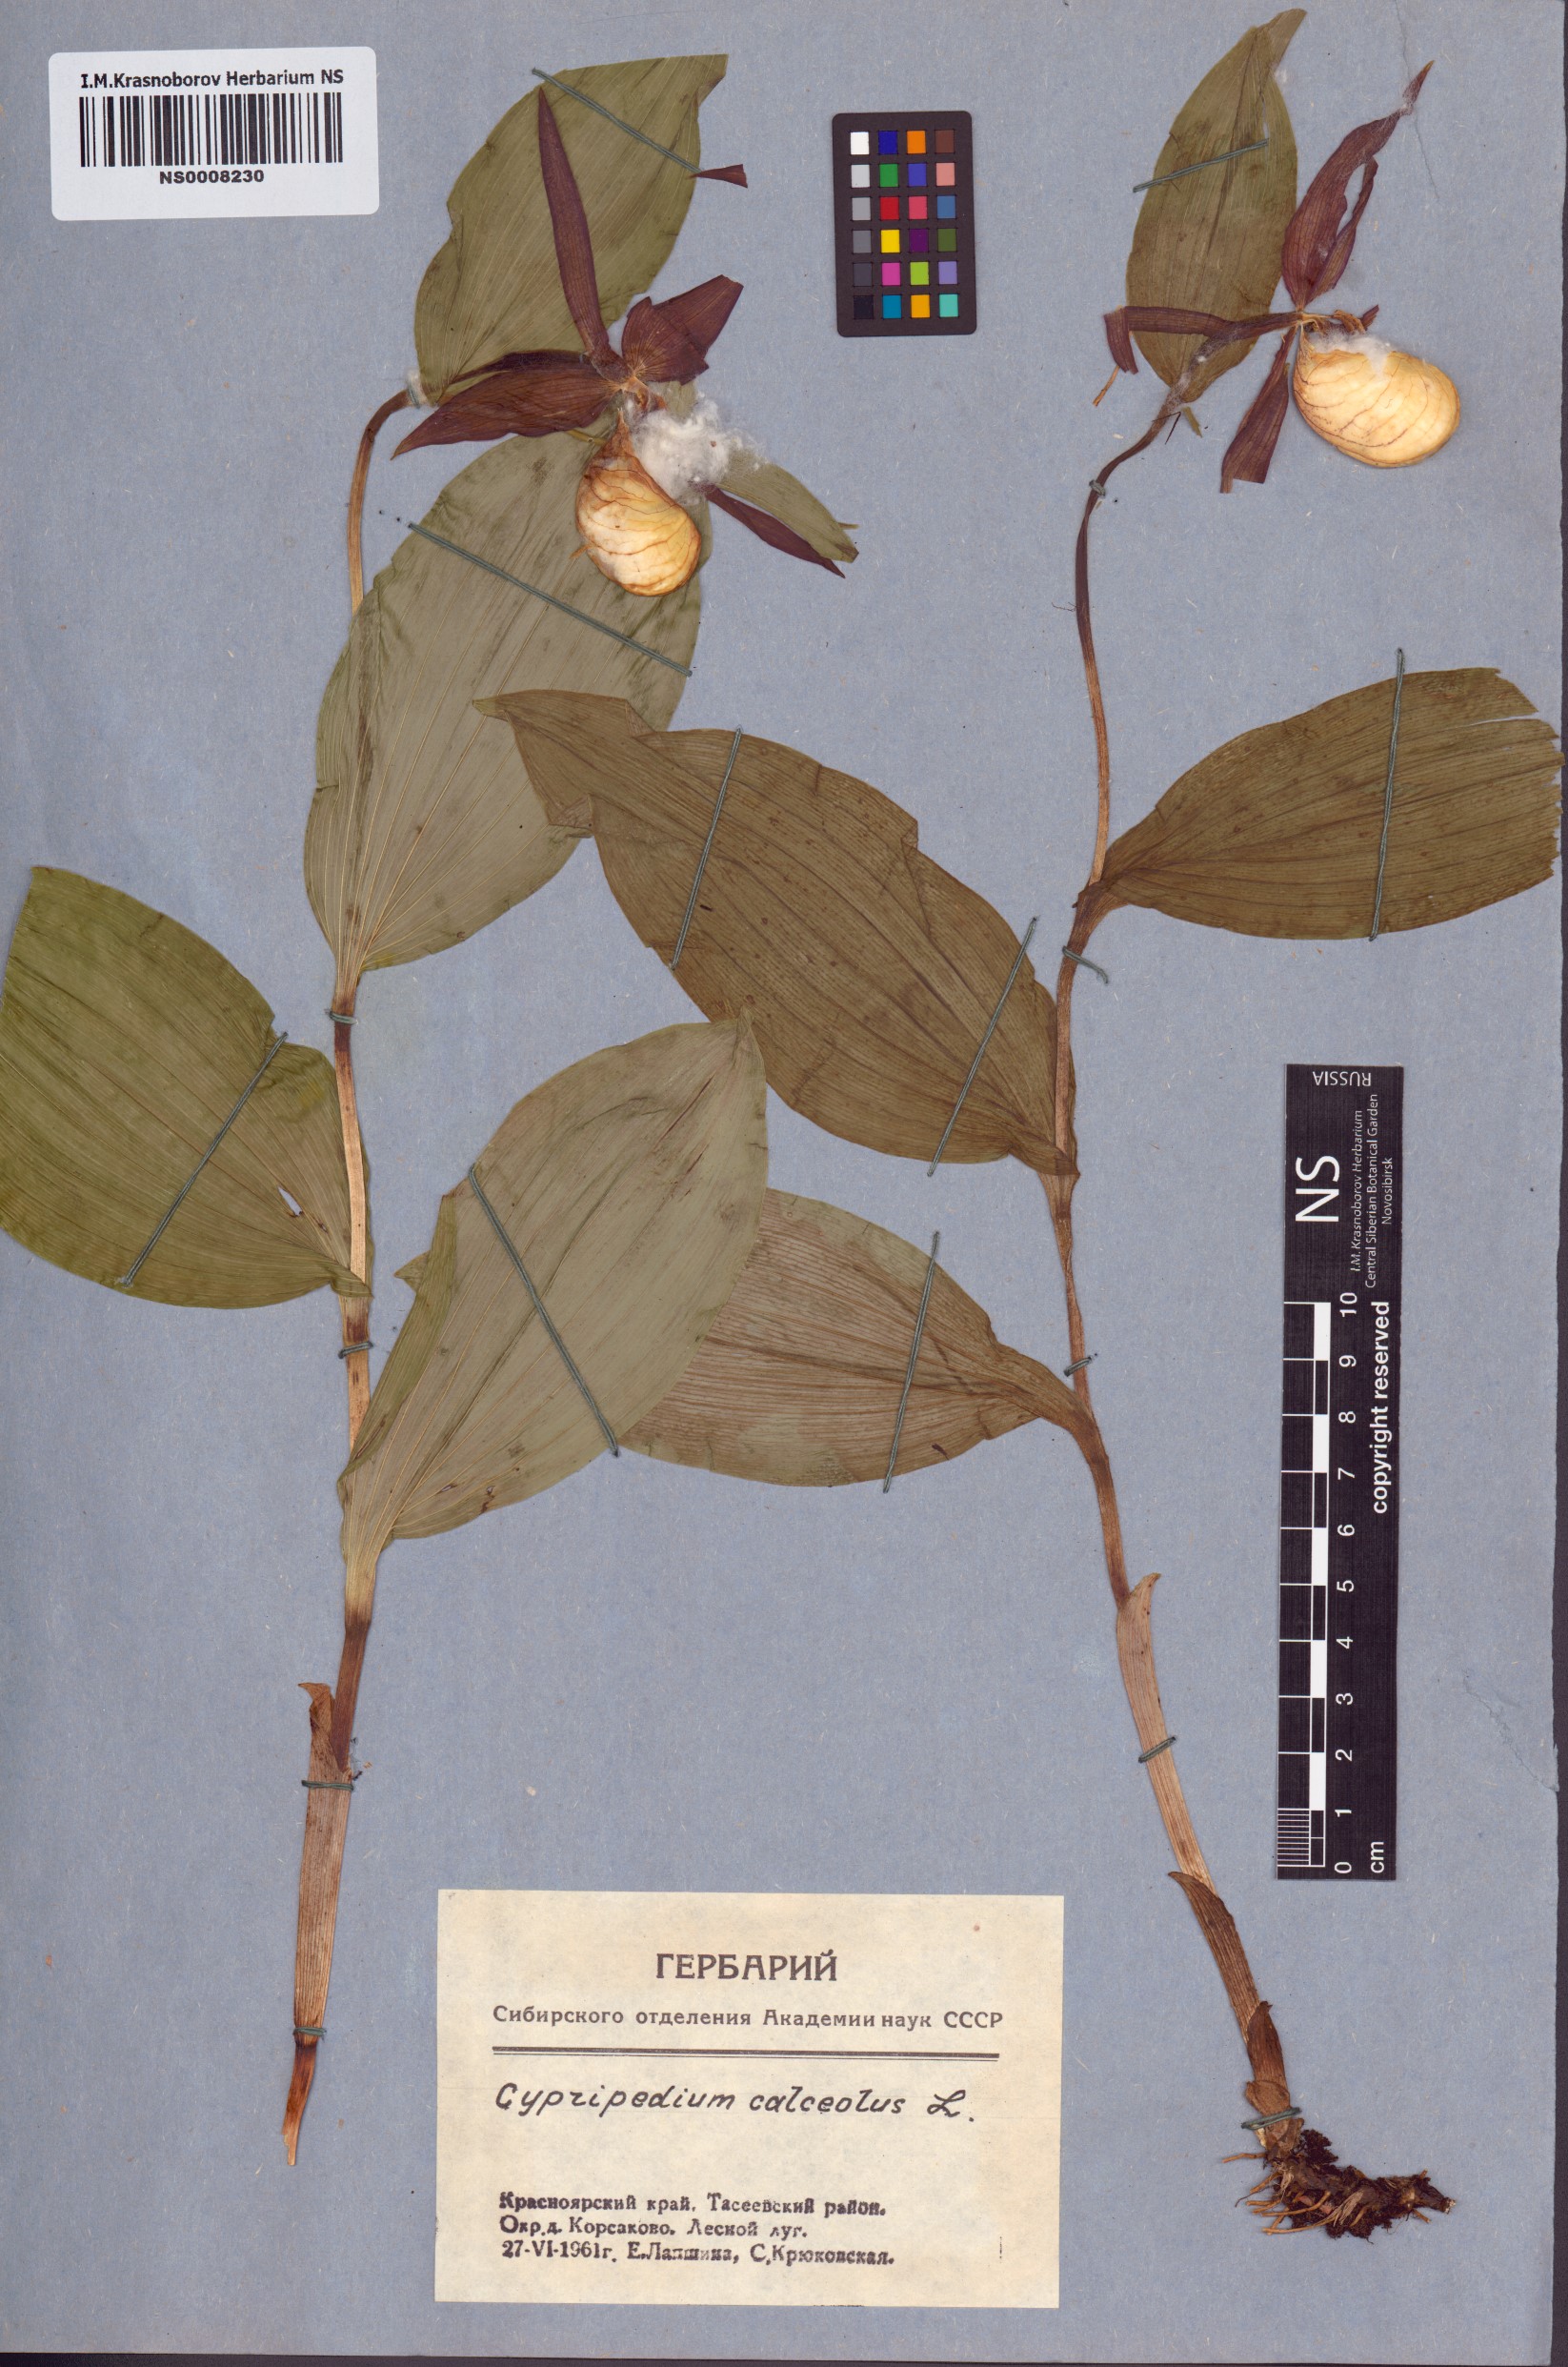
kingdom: Plantae
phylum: Tracheophyta
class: Liliopsida
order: Asparagales
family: Orchidaceae
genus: Cypripedium
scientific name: Cypripedium calceolus
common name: Lady's-slipper
